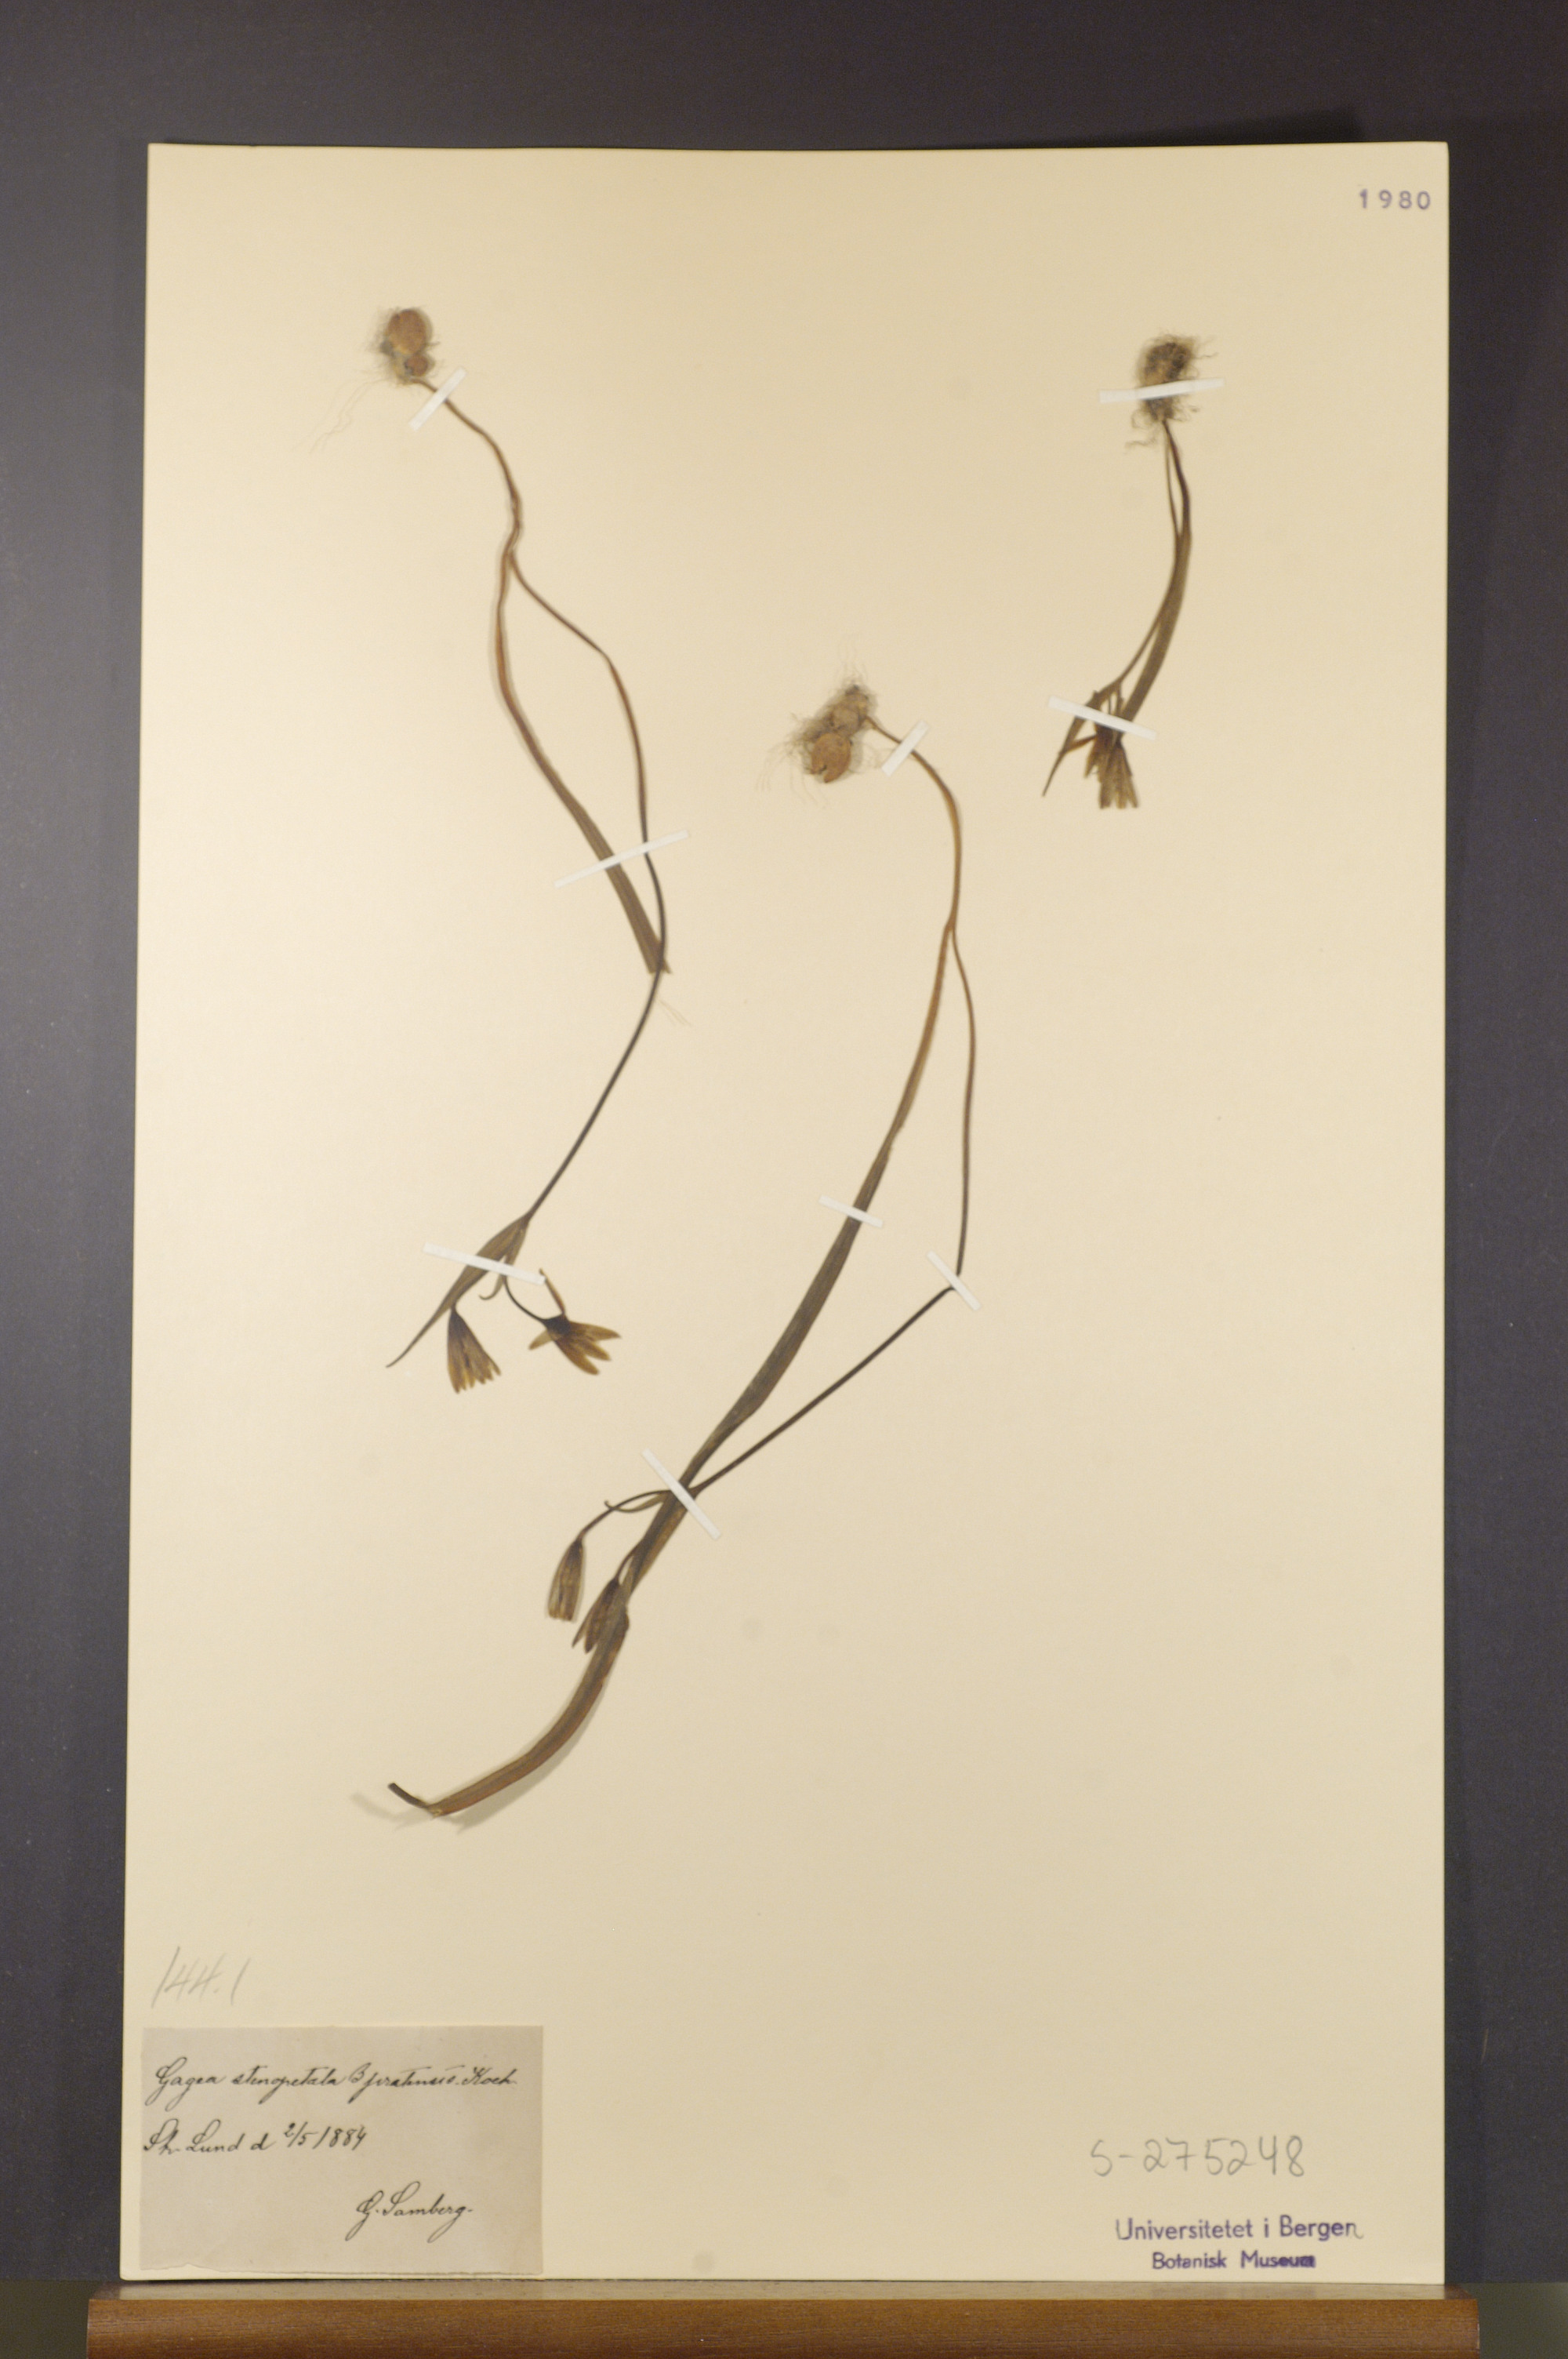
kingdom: Plantae
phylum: Tracheophyta
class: Liliopsida
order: Liliales
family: Liliaceae
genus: Gagea
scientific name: Gagea pratensis
